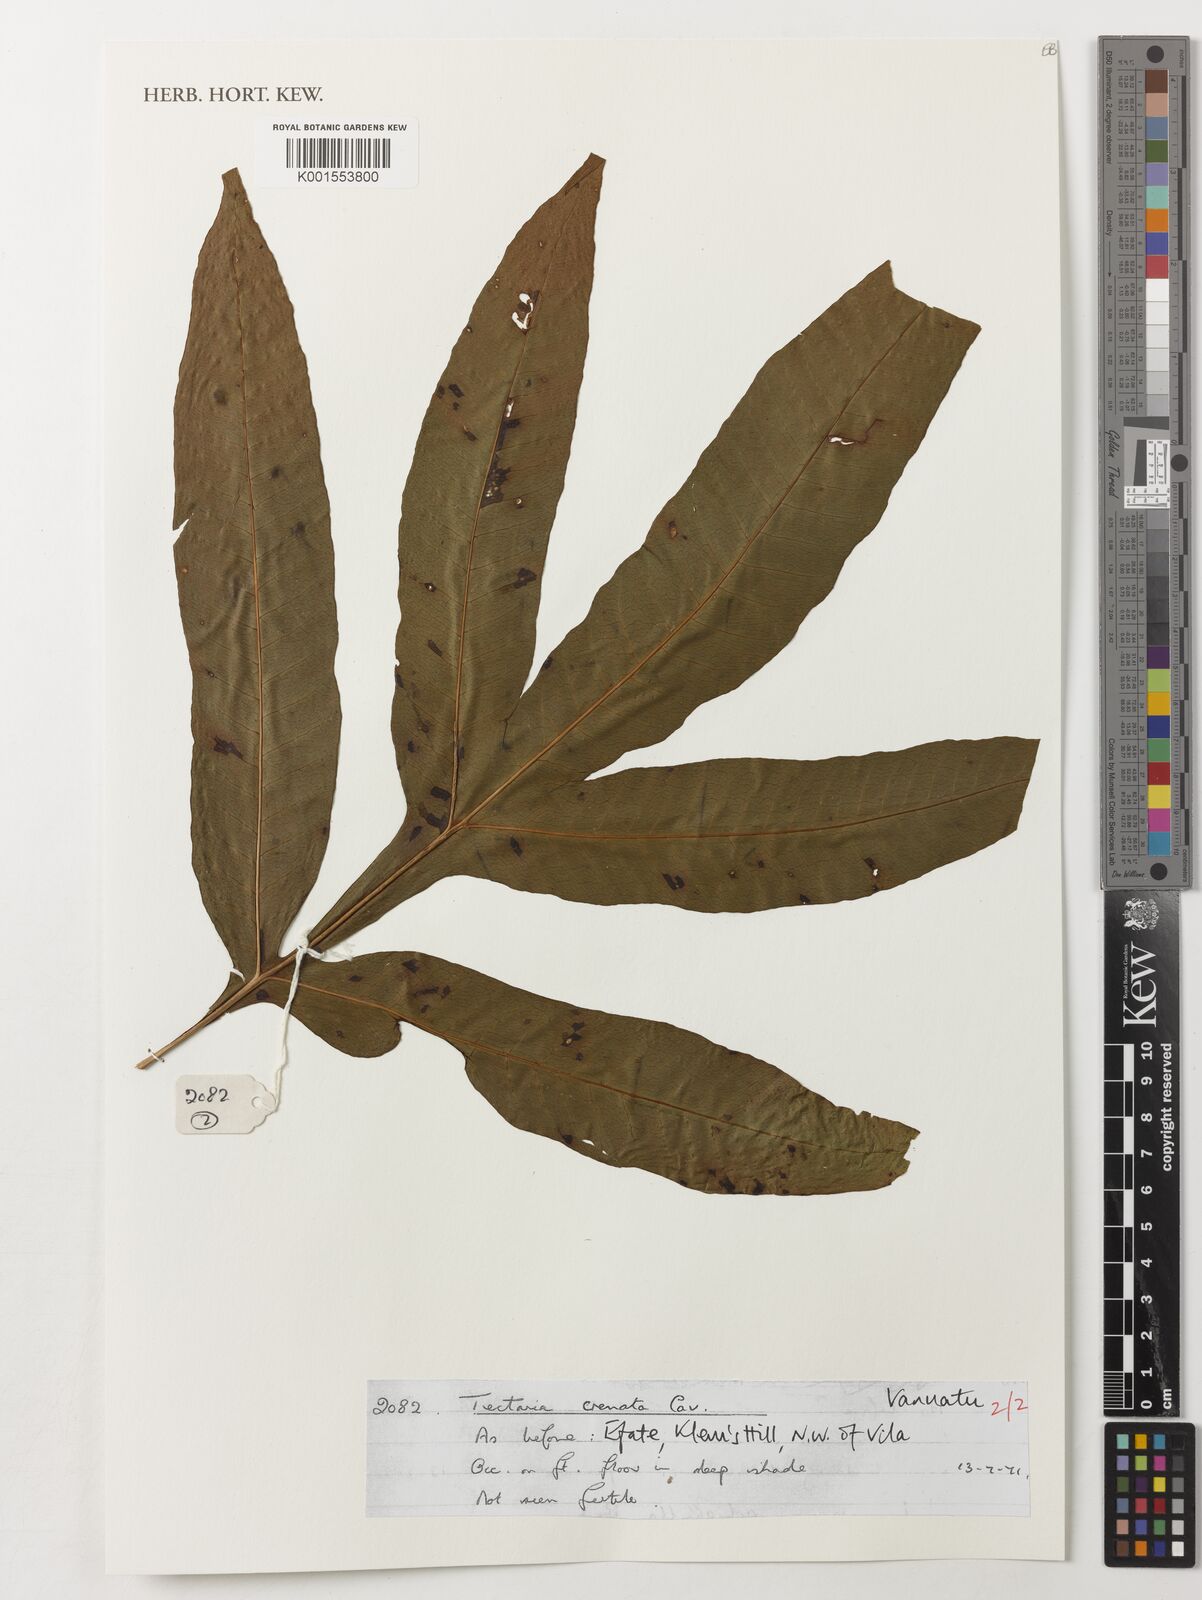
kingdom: Plantae
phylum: Tracheophyta
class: Polypodiopsida
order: Polypodiales
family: Tectariaceae
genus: Tectaria
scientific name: Tectaria crenata
